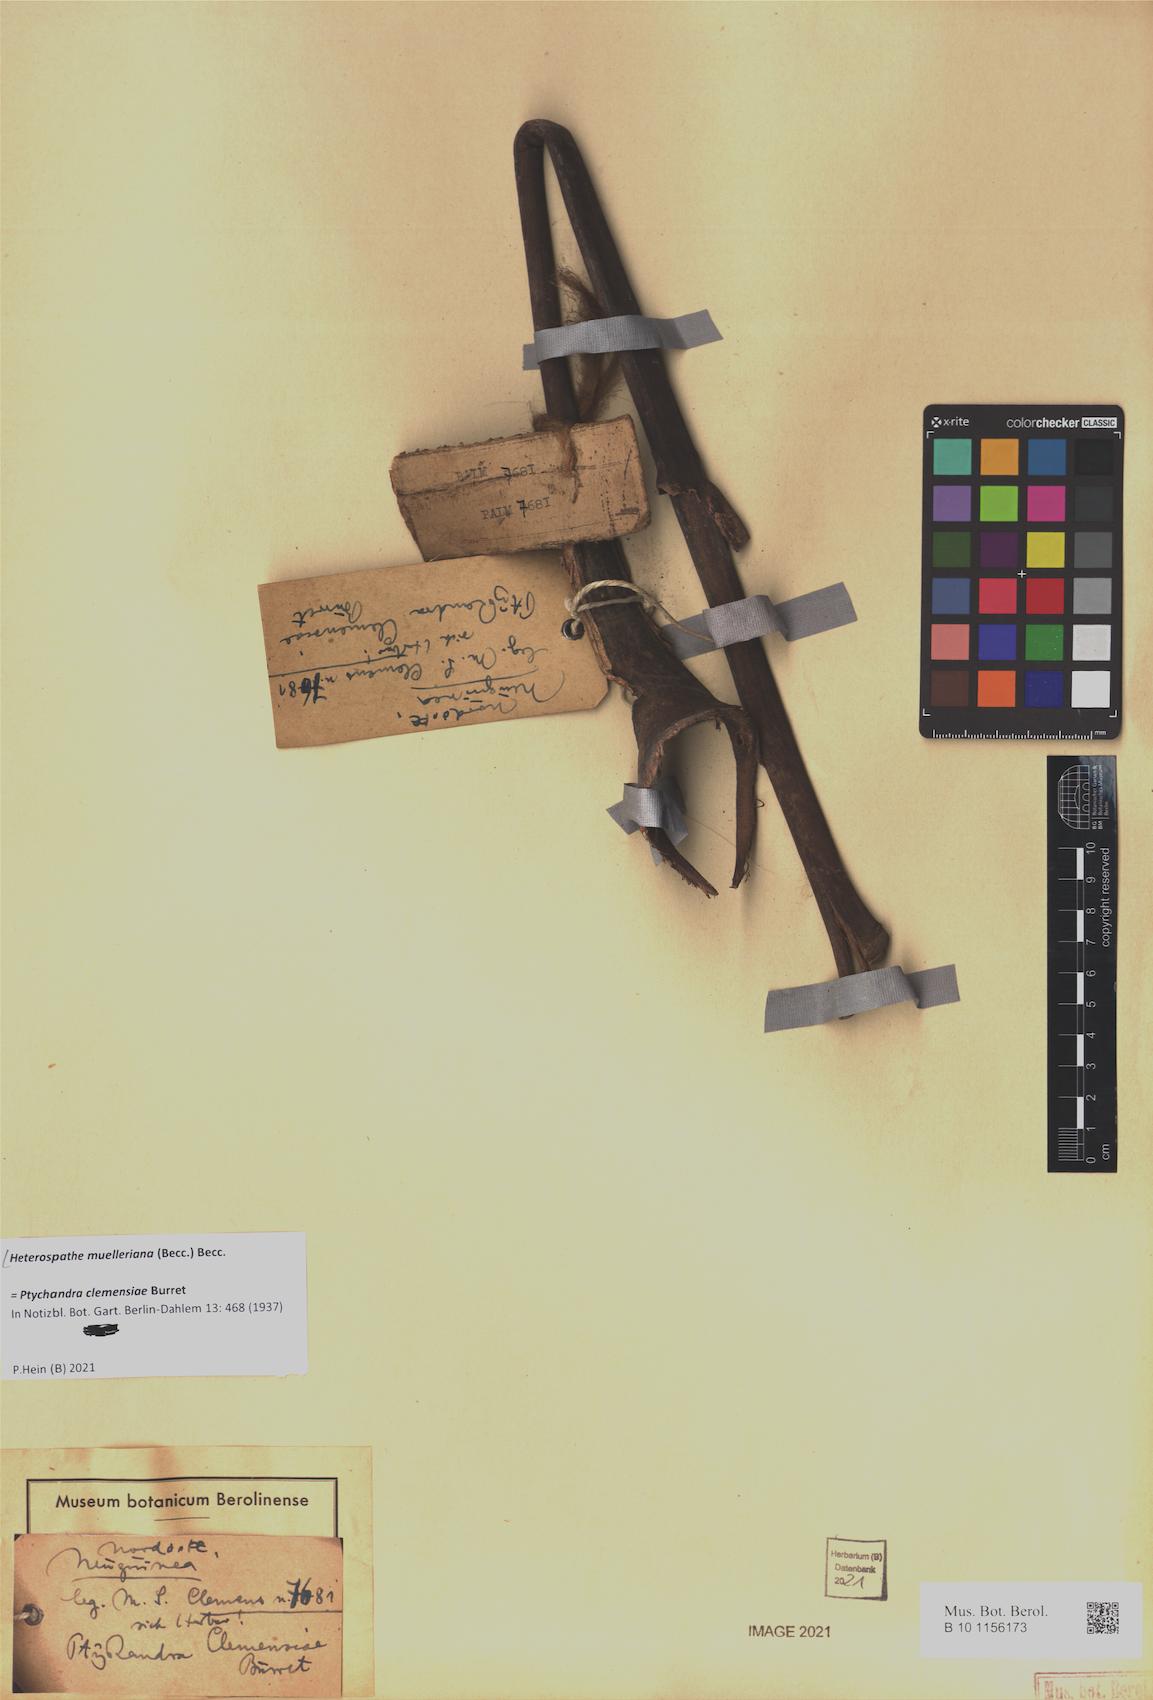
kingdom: Plantae
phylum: Tracheophyta
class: Liliopsida
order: Arecales
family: Arecaceae
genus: Heterospathe
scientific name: Heterospathe muelleriana
